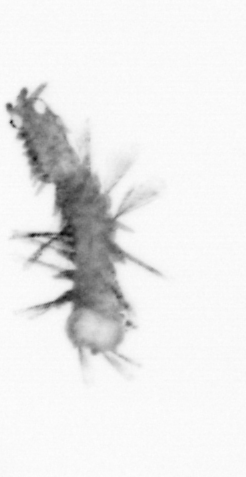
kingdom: Animalia
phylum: Annelida
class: Polychaeta
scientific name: Polychaeta
